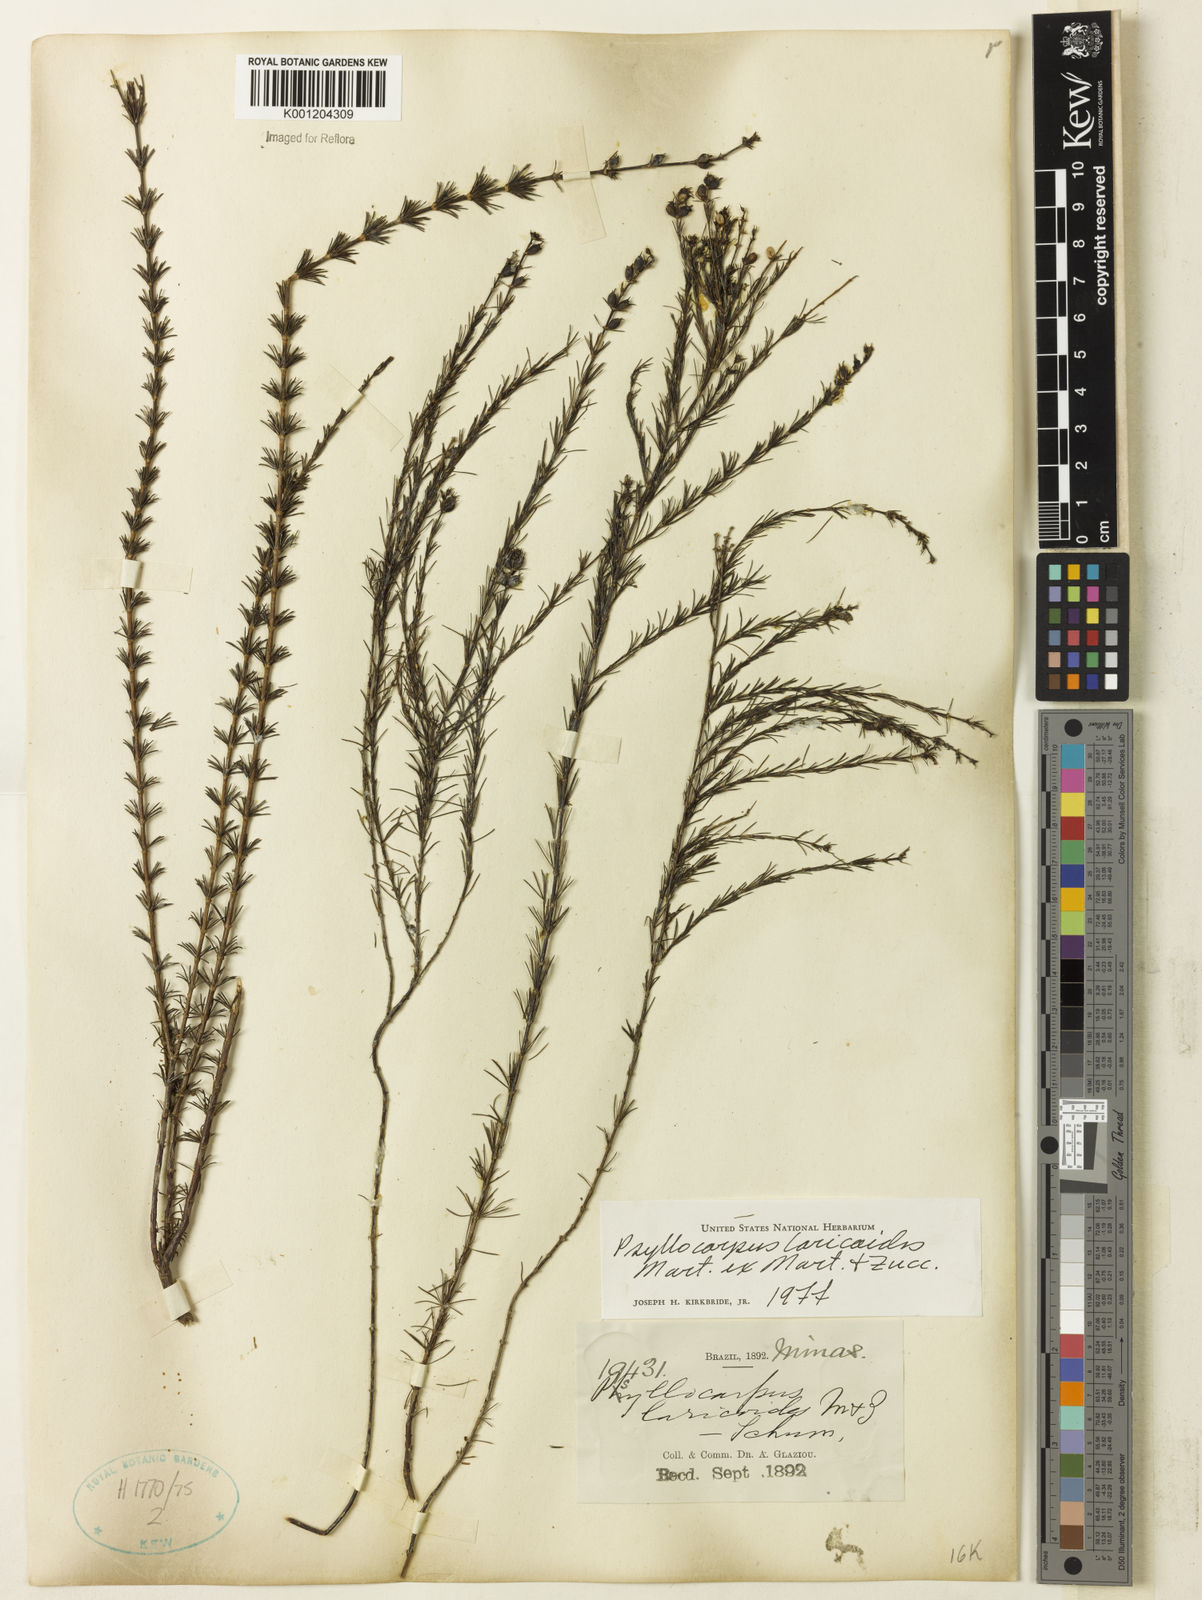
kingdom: Plantae
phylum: Tracheophyta
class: Magnoliopsida
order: Gentianales
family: Rubiaceae
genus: Psyllocarpus
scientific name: Psyllocarpus laricoides
